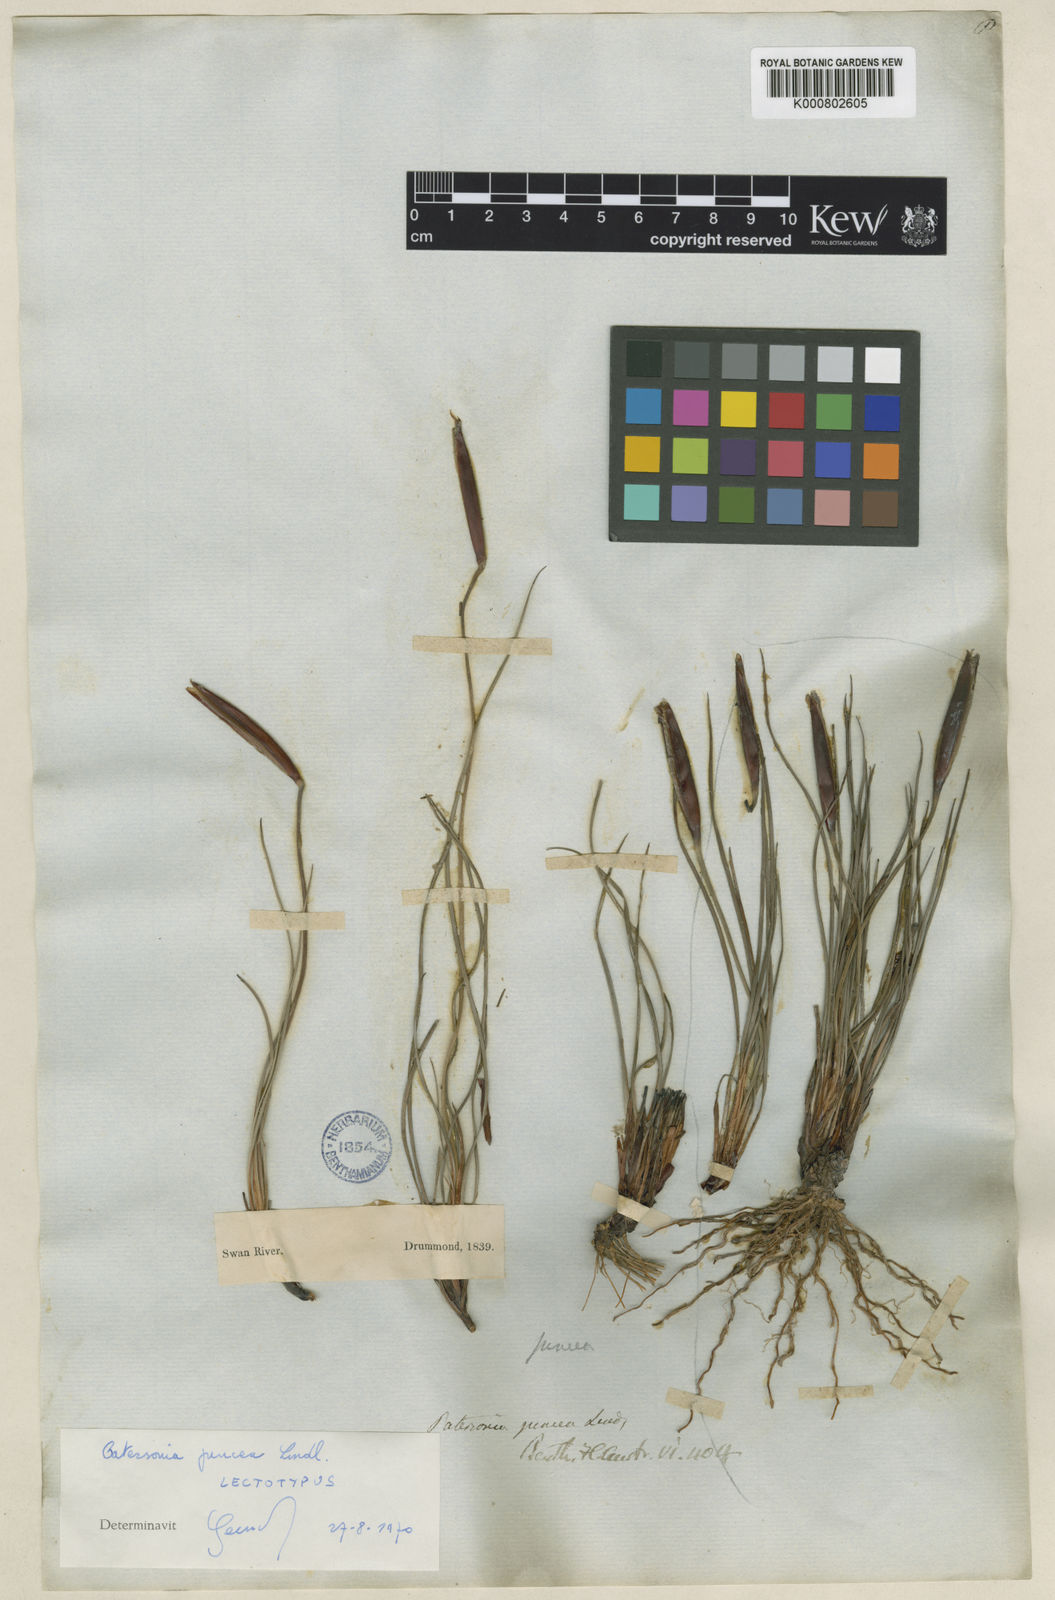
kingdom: Plantae
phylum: Tracheophyta
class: Liliopsida
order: Asparagales
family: Iridaceae
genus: Patersonia
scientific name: Patersonia juncea
